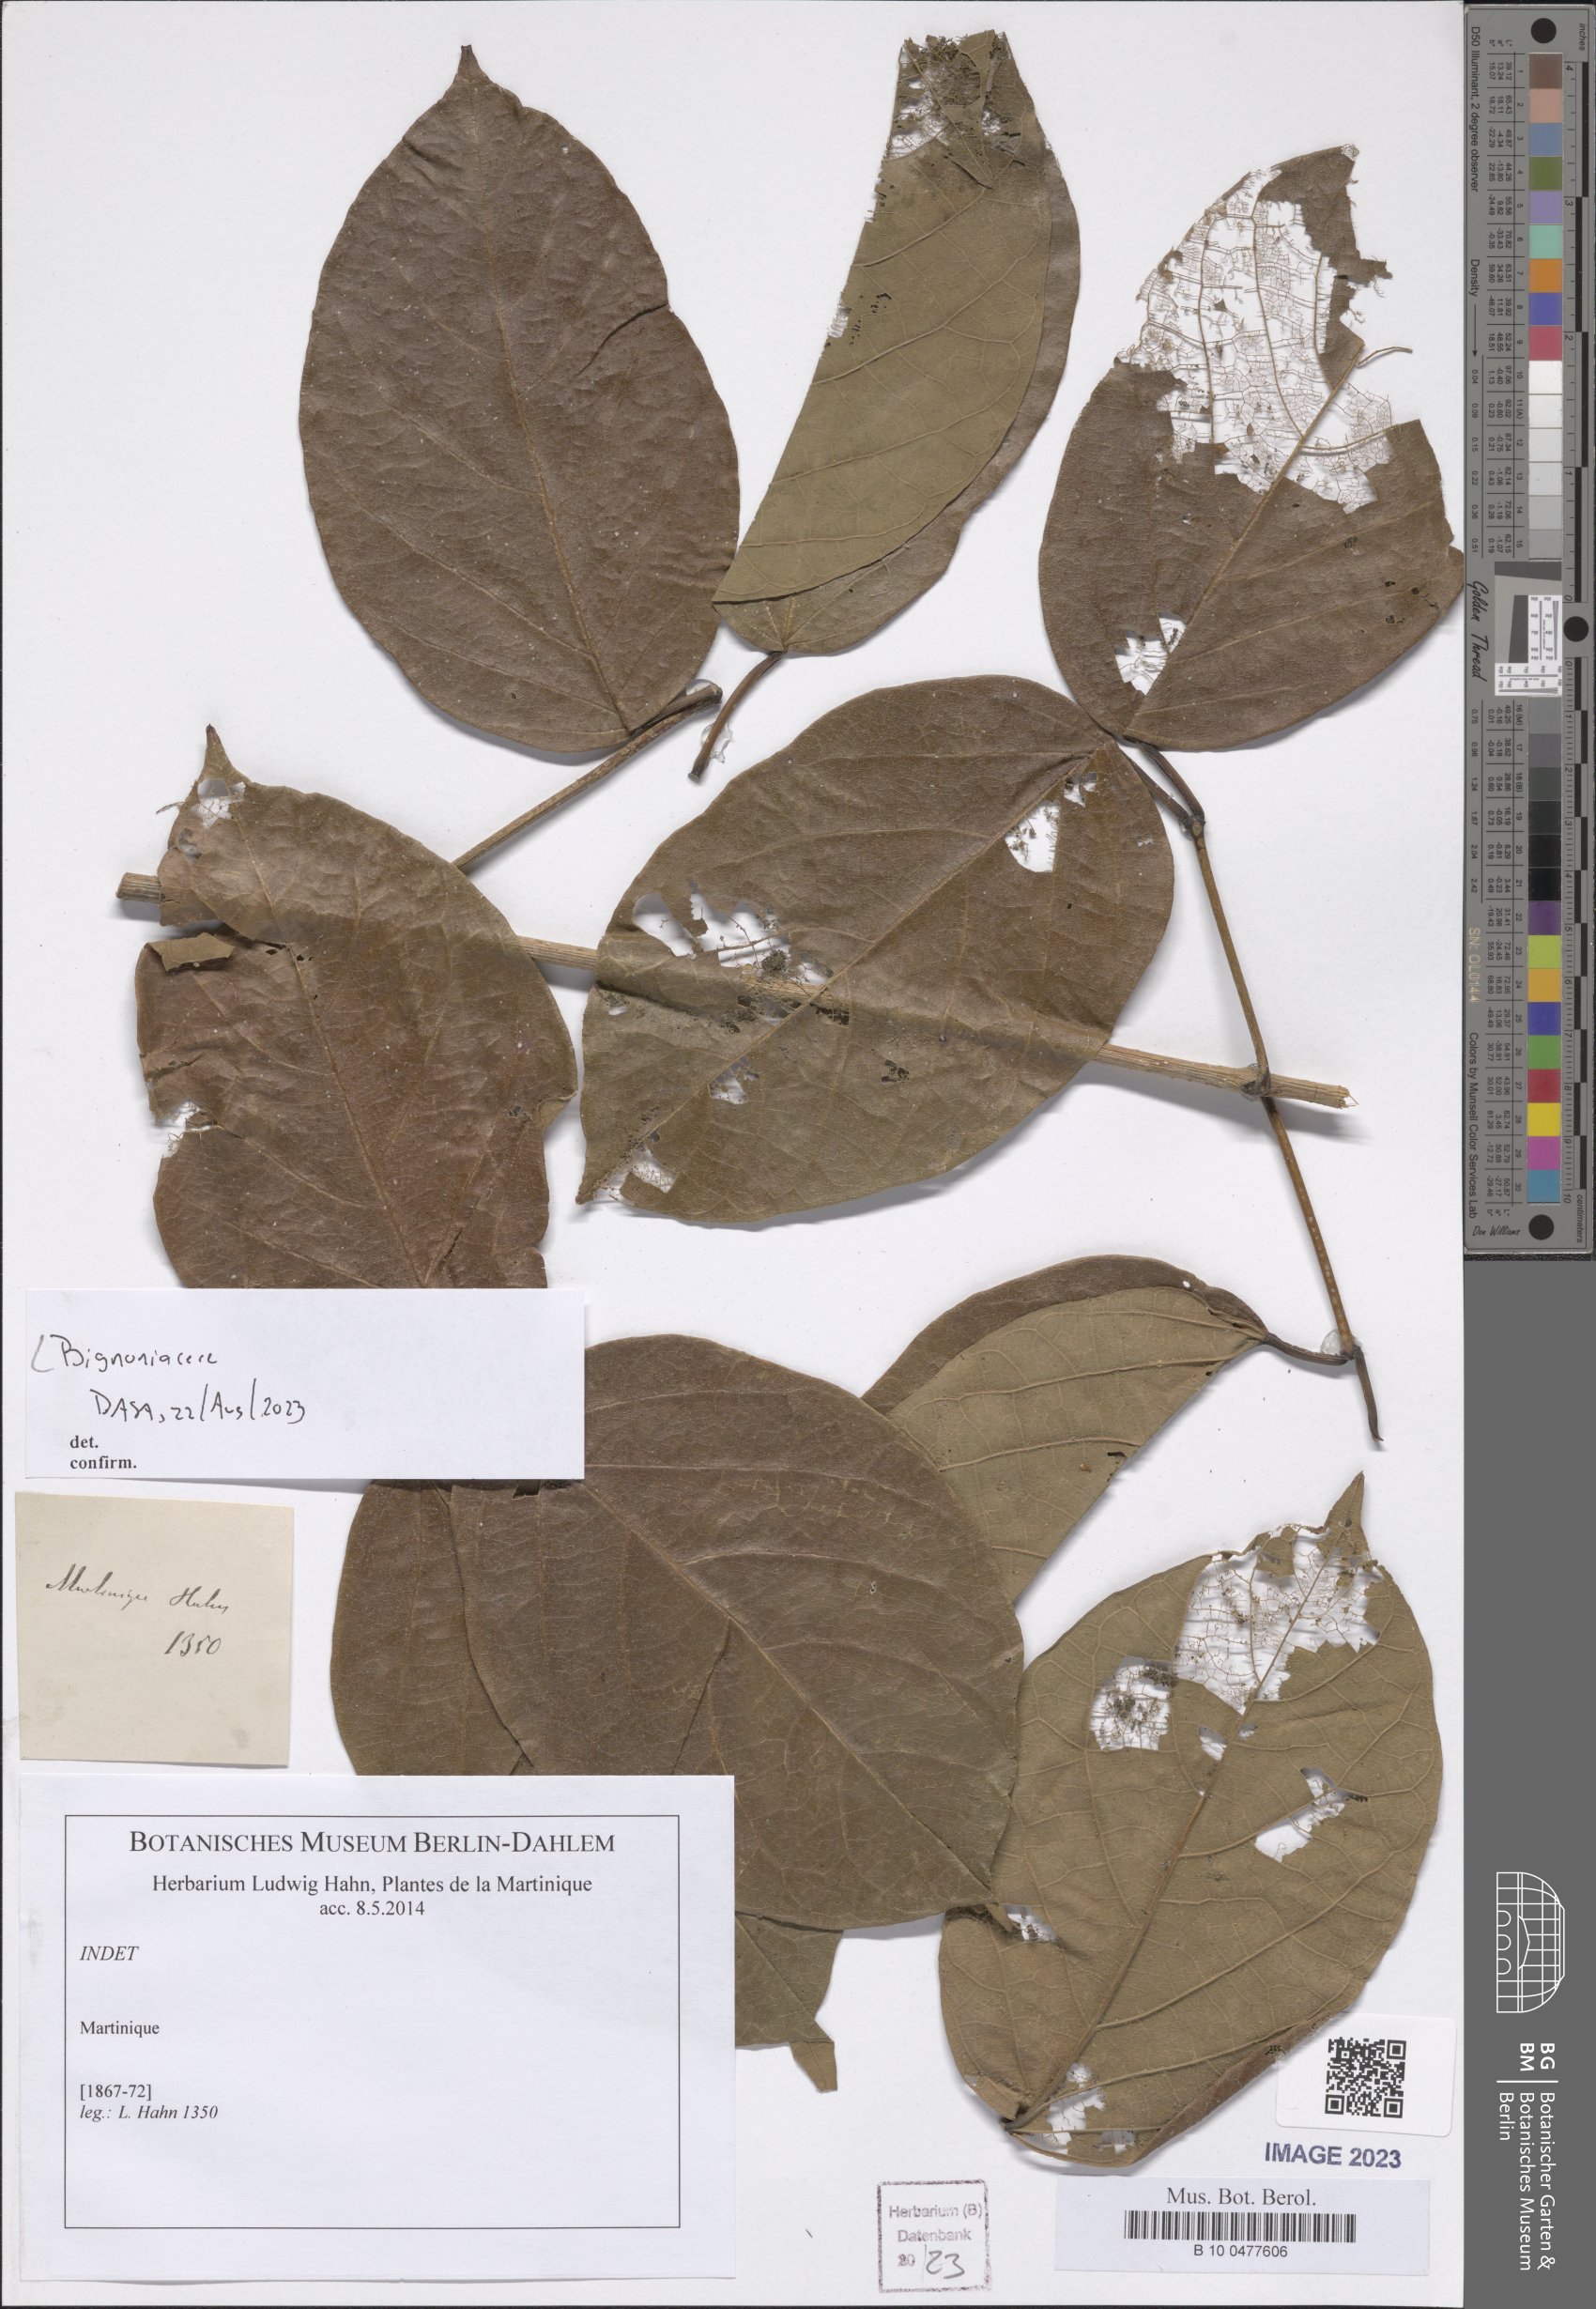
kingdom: Plantae
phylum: Tracheophyta
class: Magnoliopsida
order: Lamiales
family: Bignoniaceae
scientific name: Bignoniaceae
